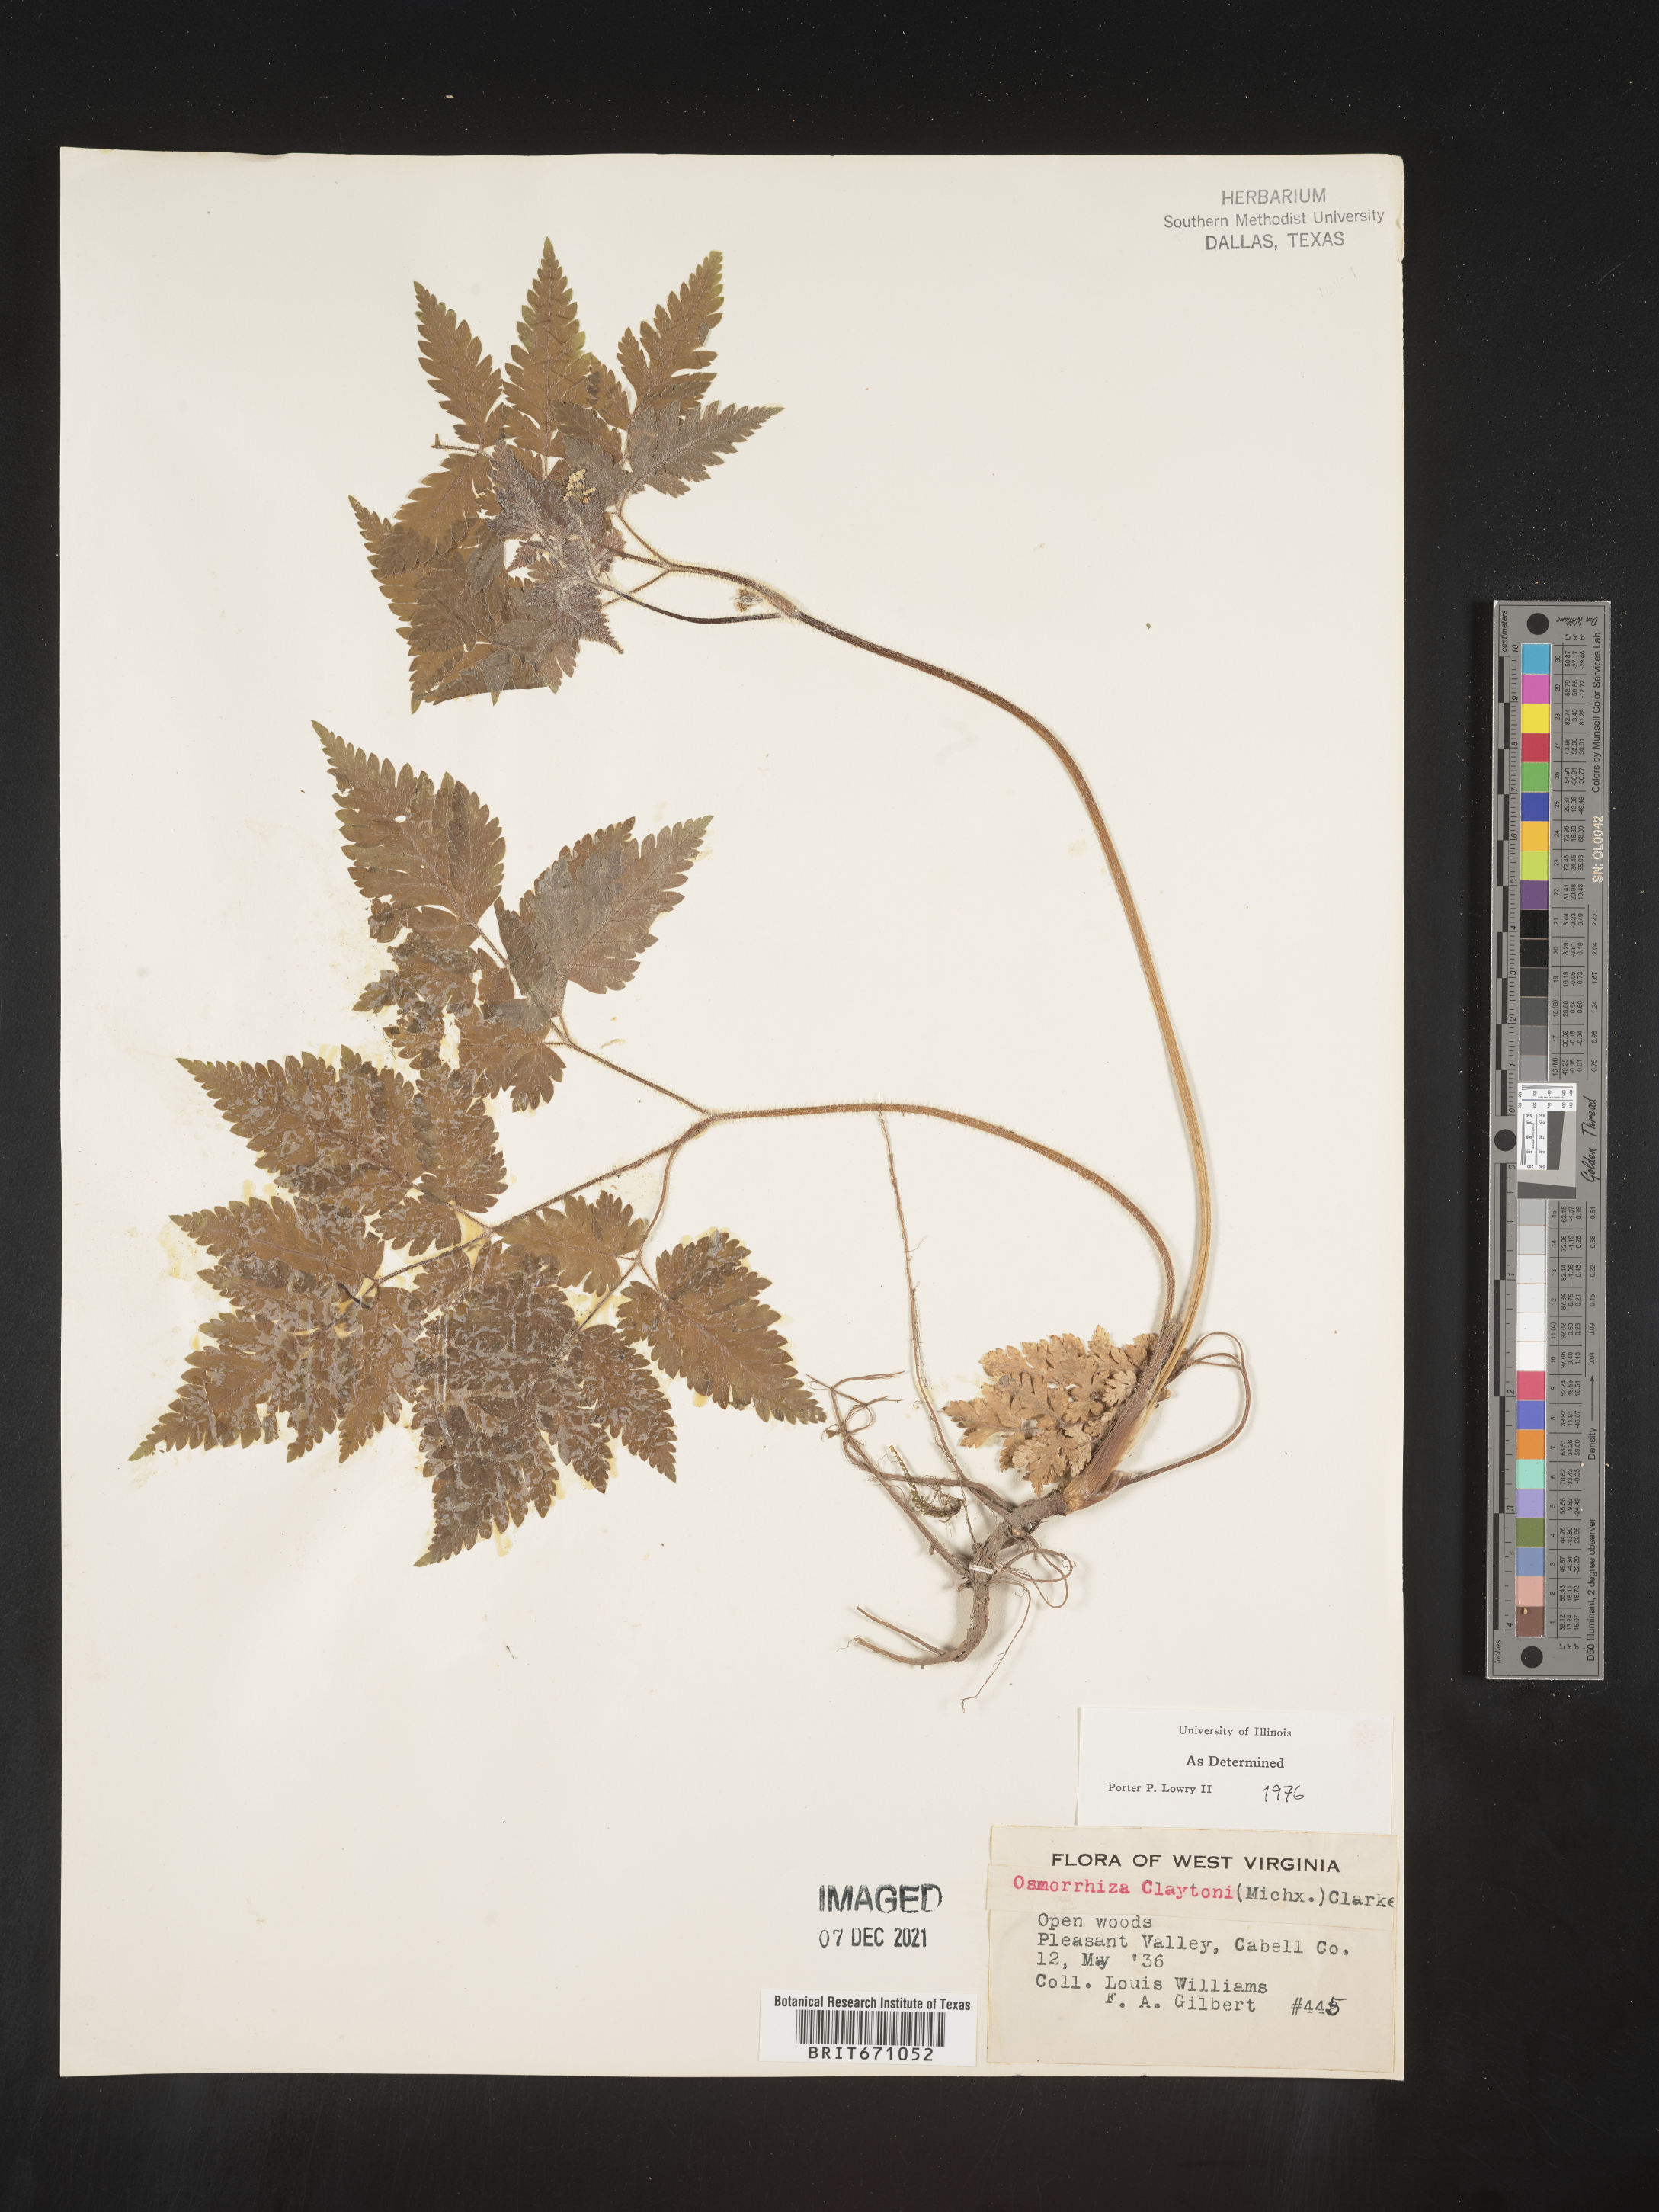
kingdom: Plantae
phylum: Tracheophyta
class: Magnoliopsida
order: Apiales
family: Apiaceae
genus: Osmorhiza
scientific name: Osmorhiza claytonii
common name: Hairy sweet cicely
